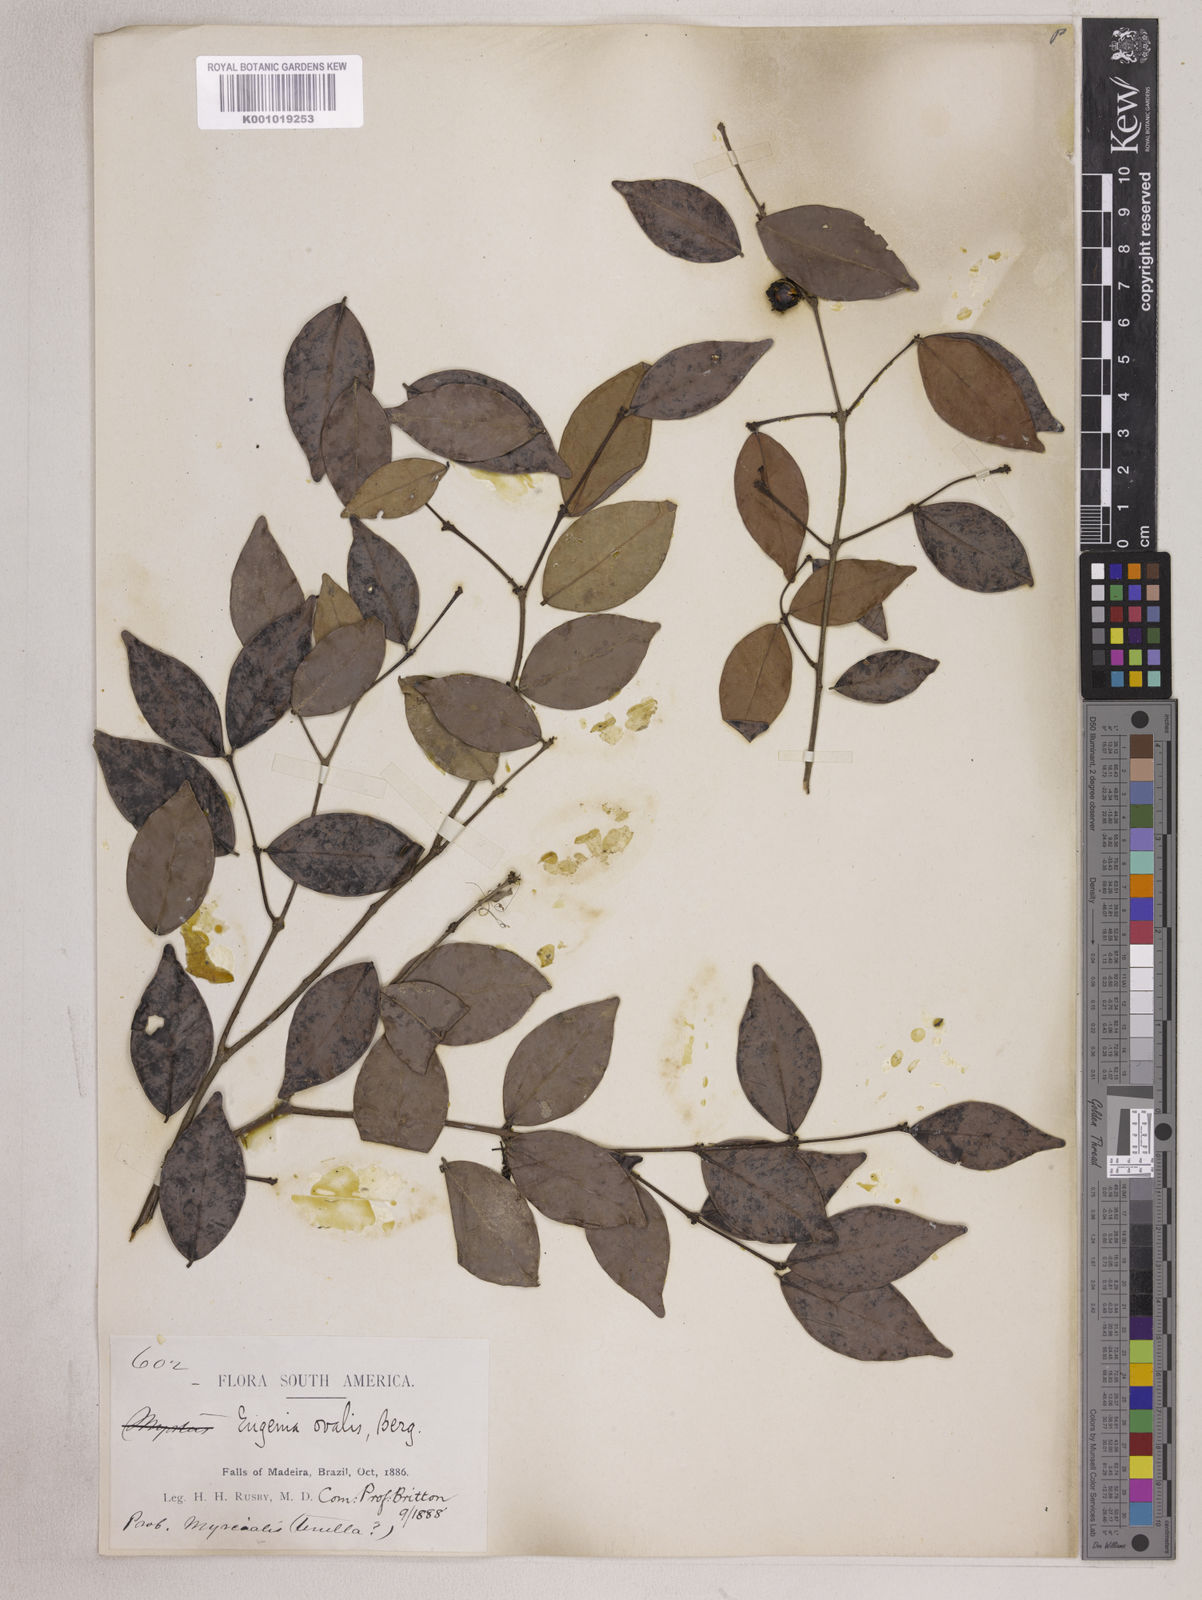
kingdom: Plantae
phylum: Tracheophyta
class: Magnoliopsida
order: Myrtales
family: Myrtaceae
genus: Eugenia
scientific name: Eugenia ovalis
